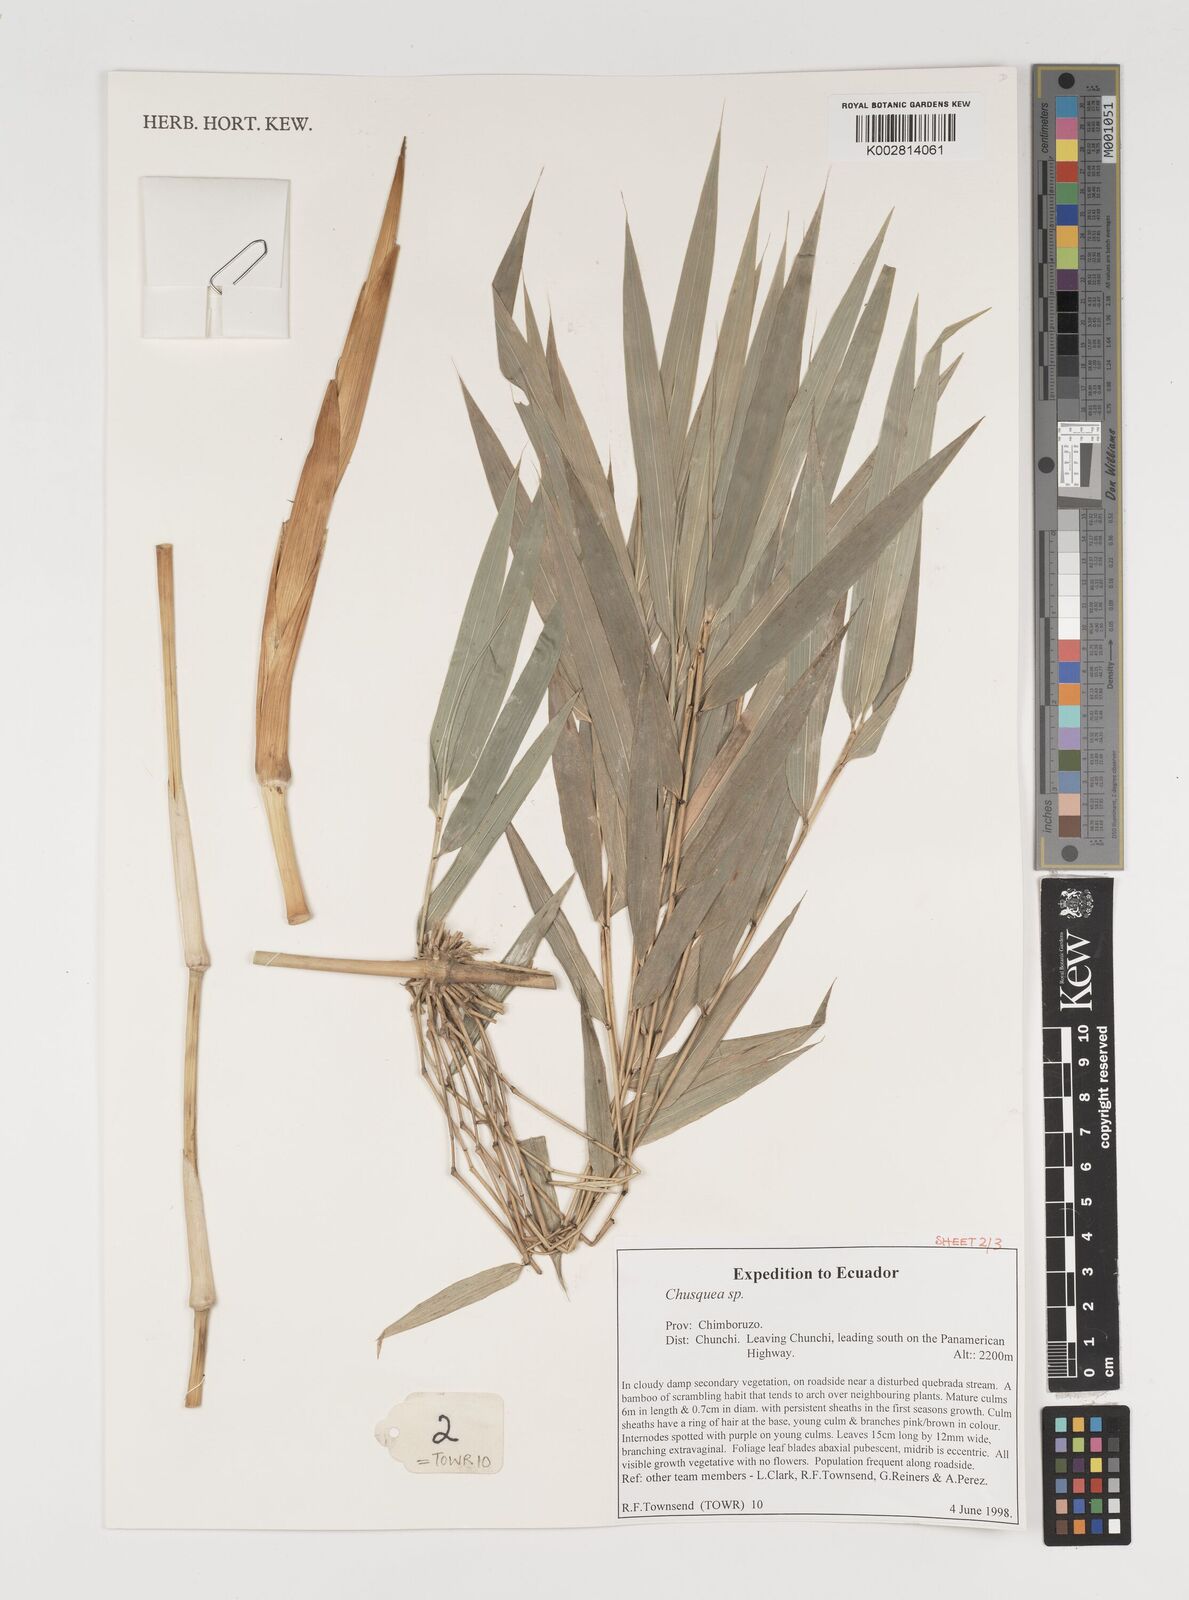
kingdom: Plantae
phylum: Tracheophyta
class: Liliopsida
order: Poales
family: Poaceae
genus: Chusquea
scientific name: Chusquea
